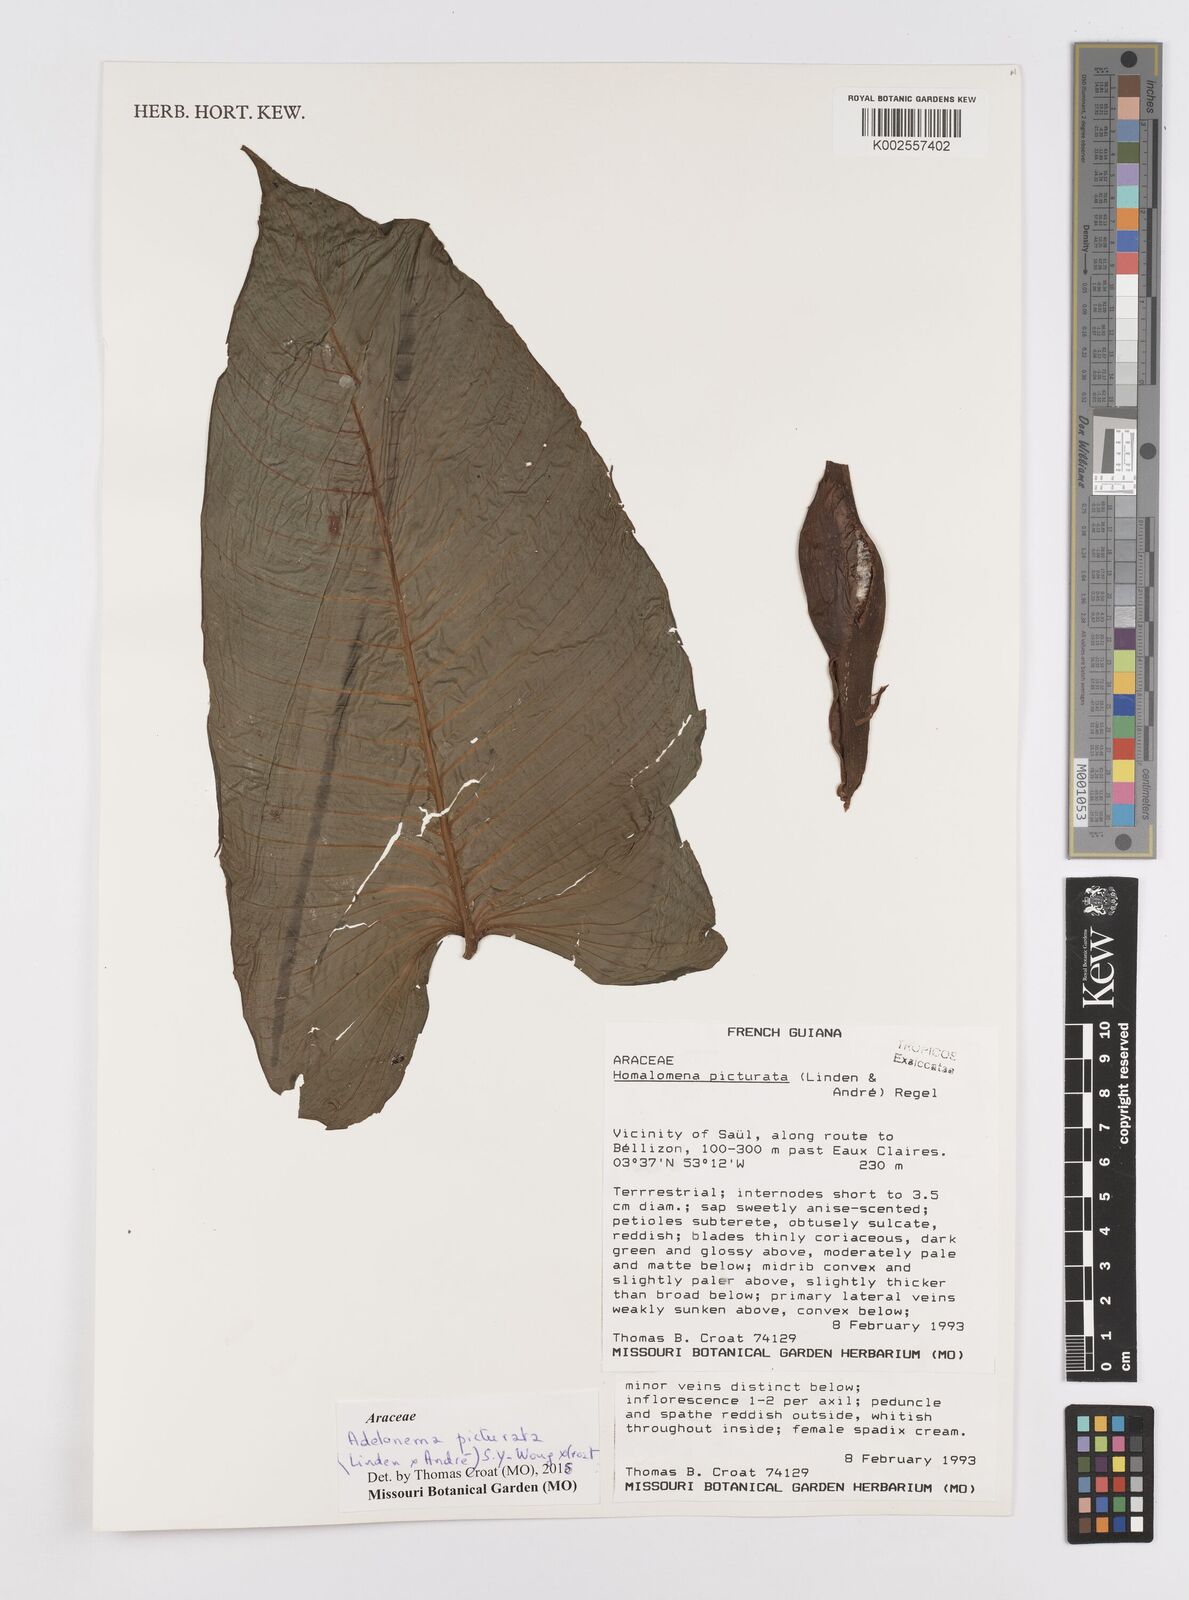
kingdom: Plantae
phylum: Tracheophyta
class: Liliopsida
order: Alismatales
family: Araceae
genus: Adelonema
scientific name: Adelonema picturatum
